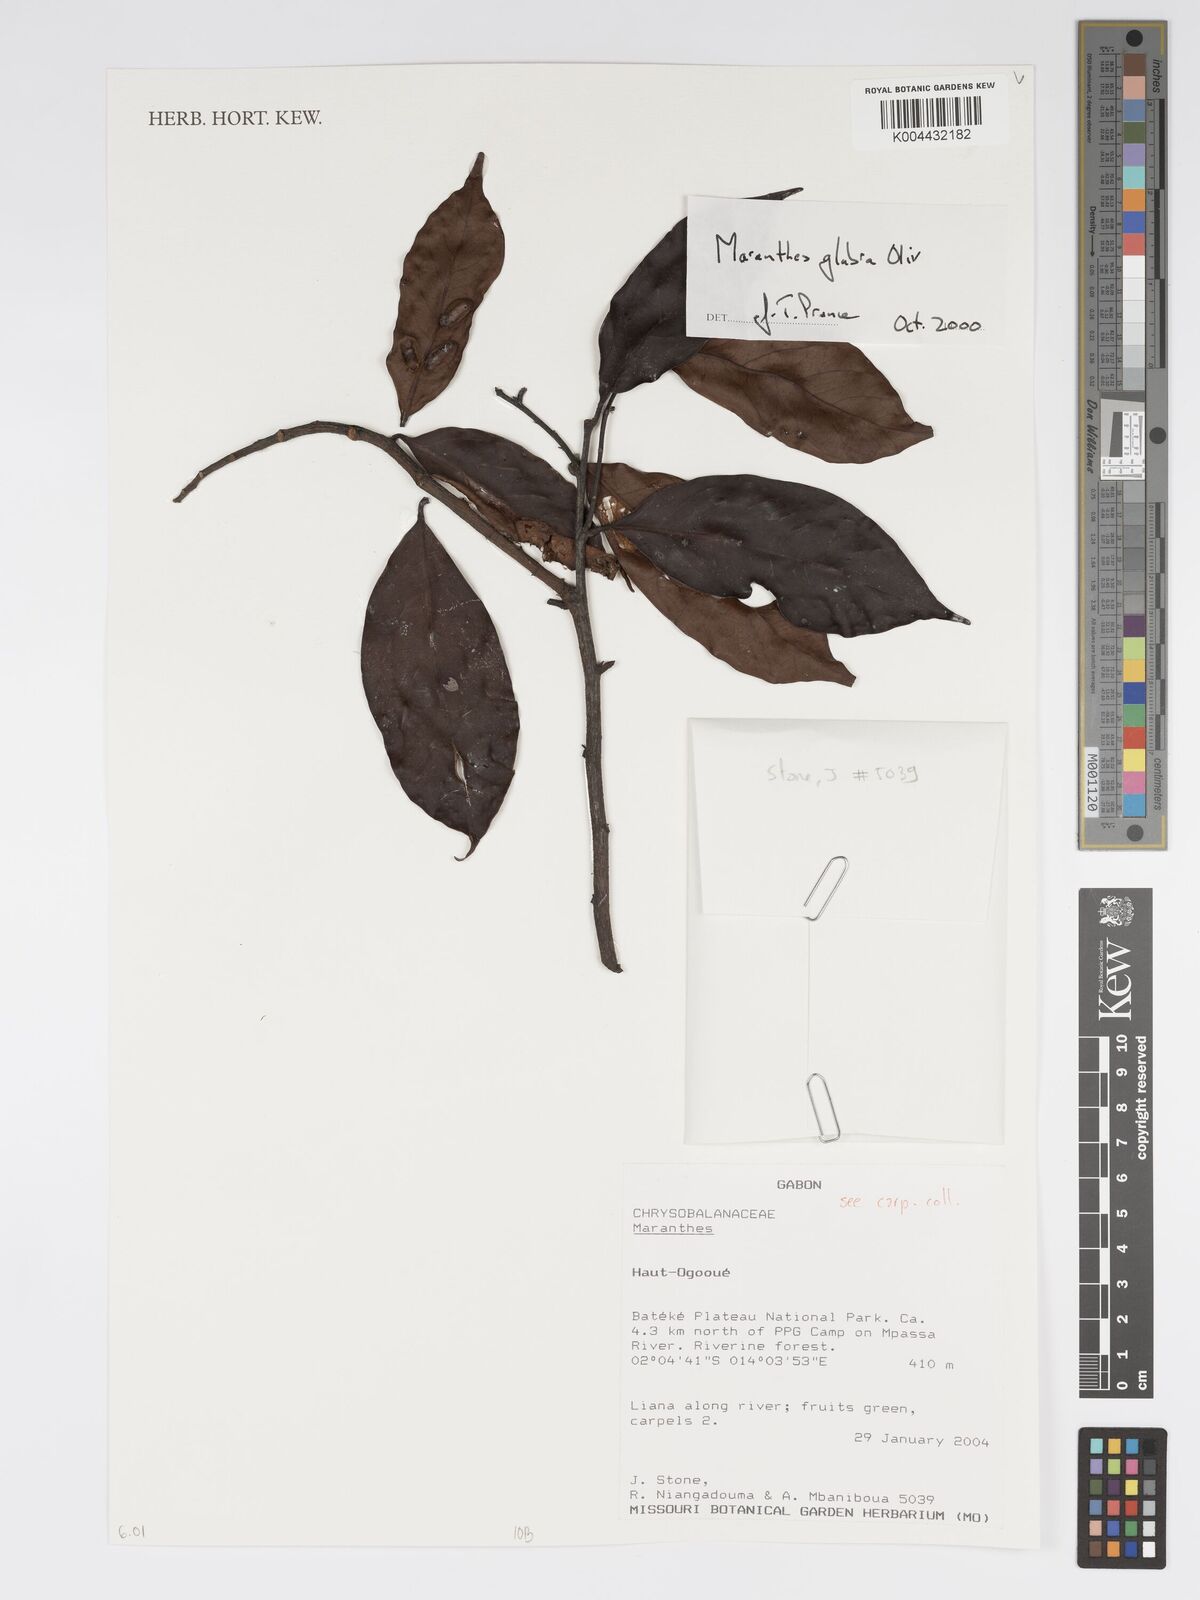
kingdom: Plantae
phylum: Tracheophyta
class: Magnoliopsida
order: Malpighiales
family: Chrysobalanaceae
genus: Maranthes
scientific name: Maranthes glabra
